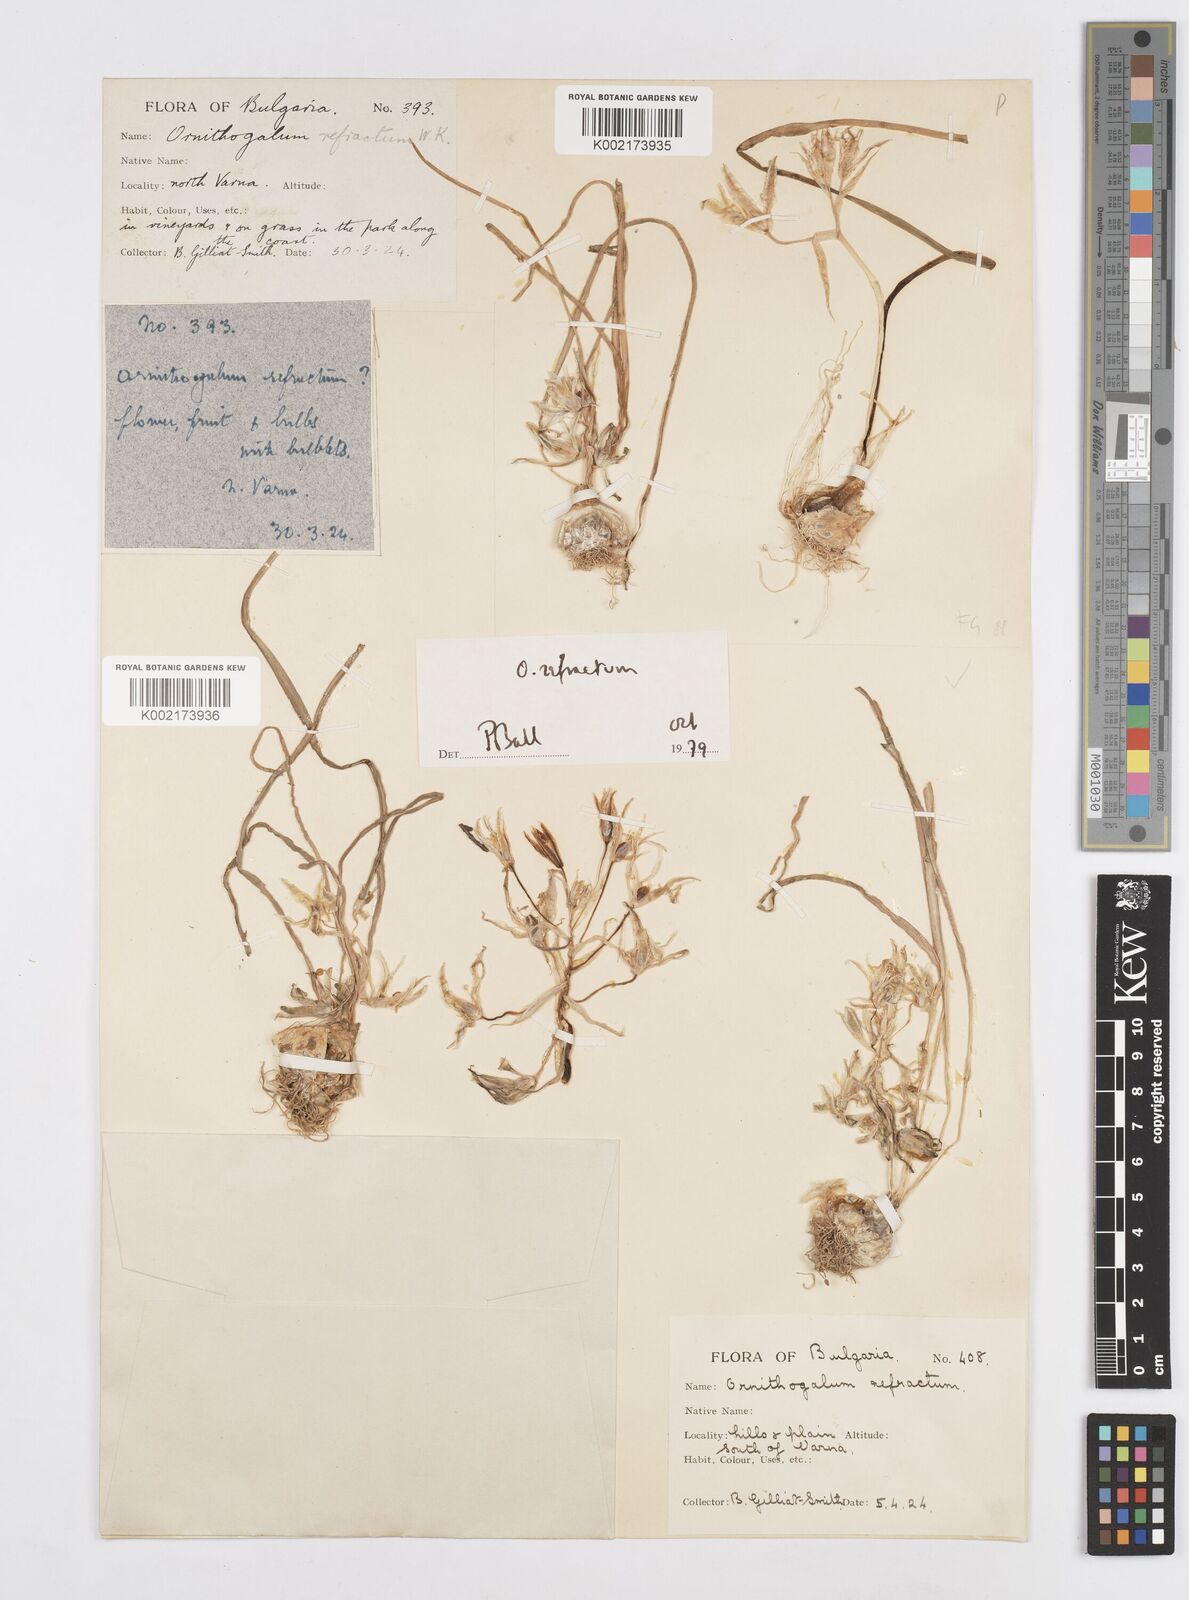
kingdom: Plantae
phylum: Tracheophyta
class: Liliopsida
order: Asparagales
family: Asparagaceae
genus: Ornithogalum
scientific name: Ornithogalum refractum
